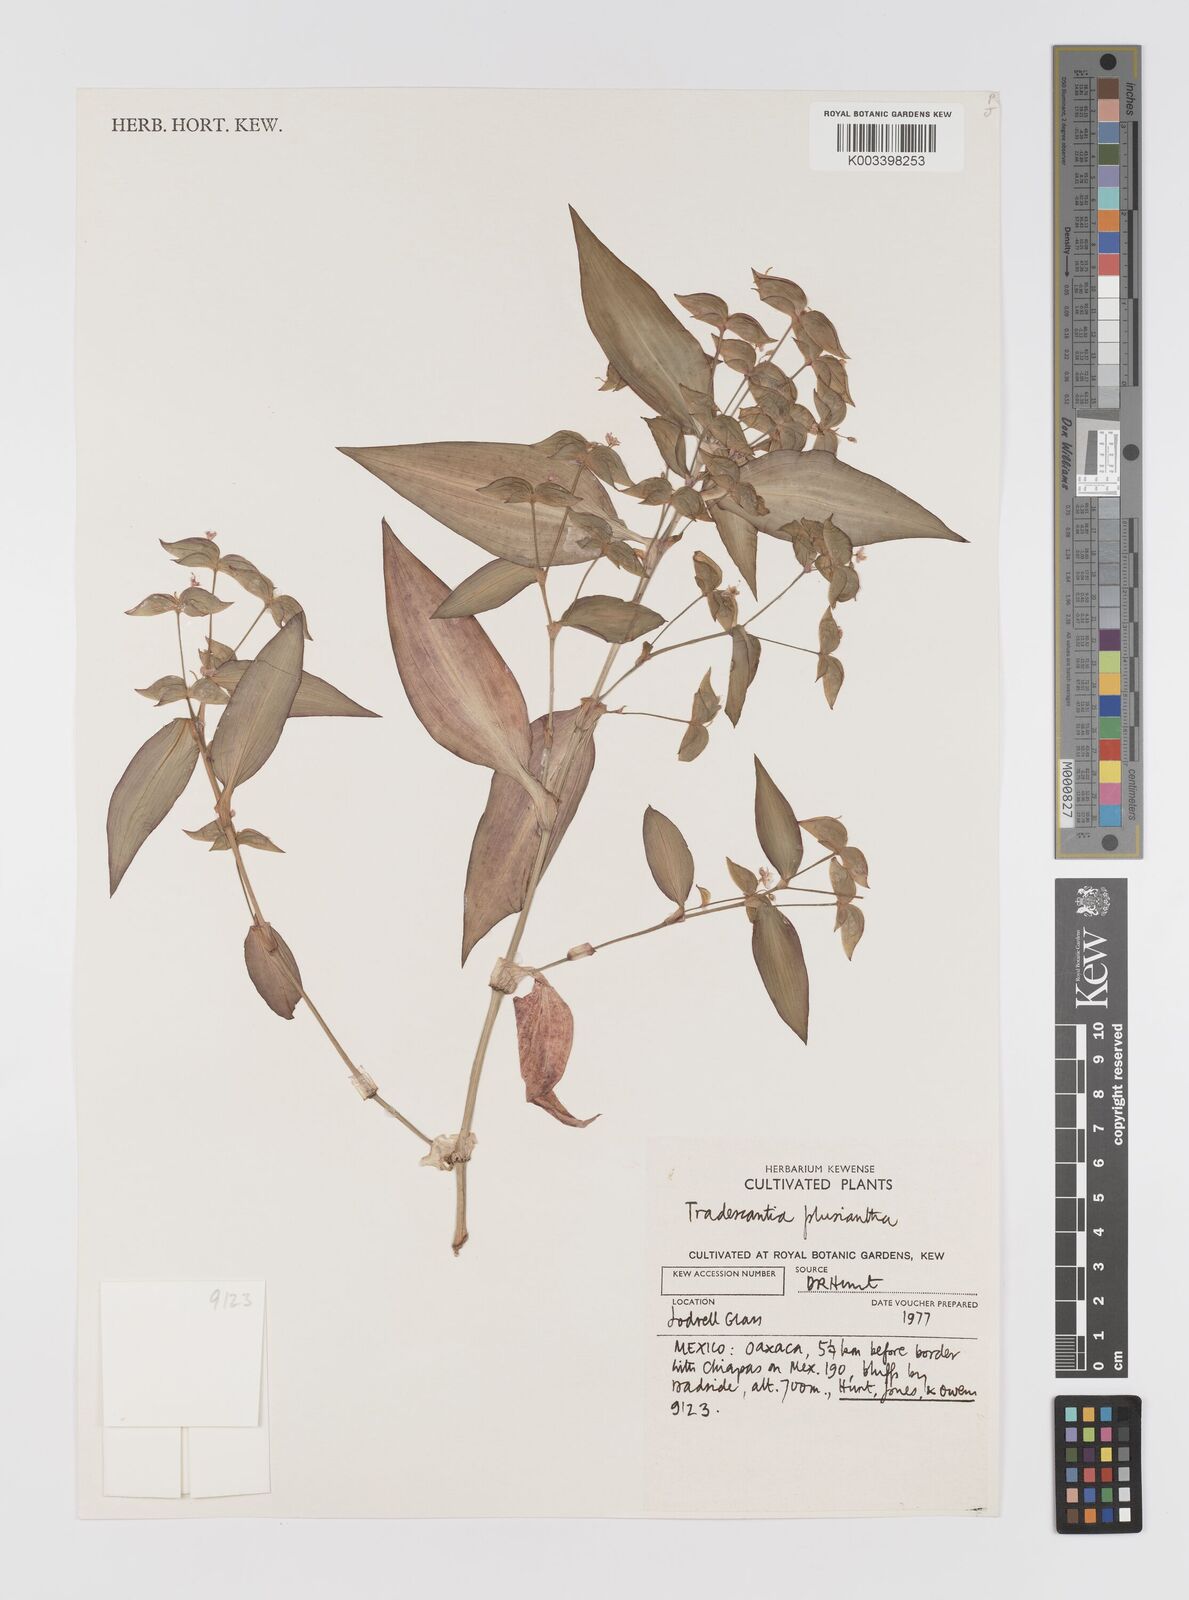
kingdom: Plantae
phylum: Tracheophyta
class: Liliopsida
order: Commelinales
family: Commelinaceae
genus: Tradescantia
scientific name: Tradescantia plusiantha
